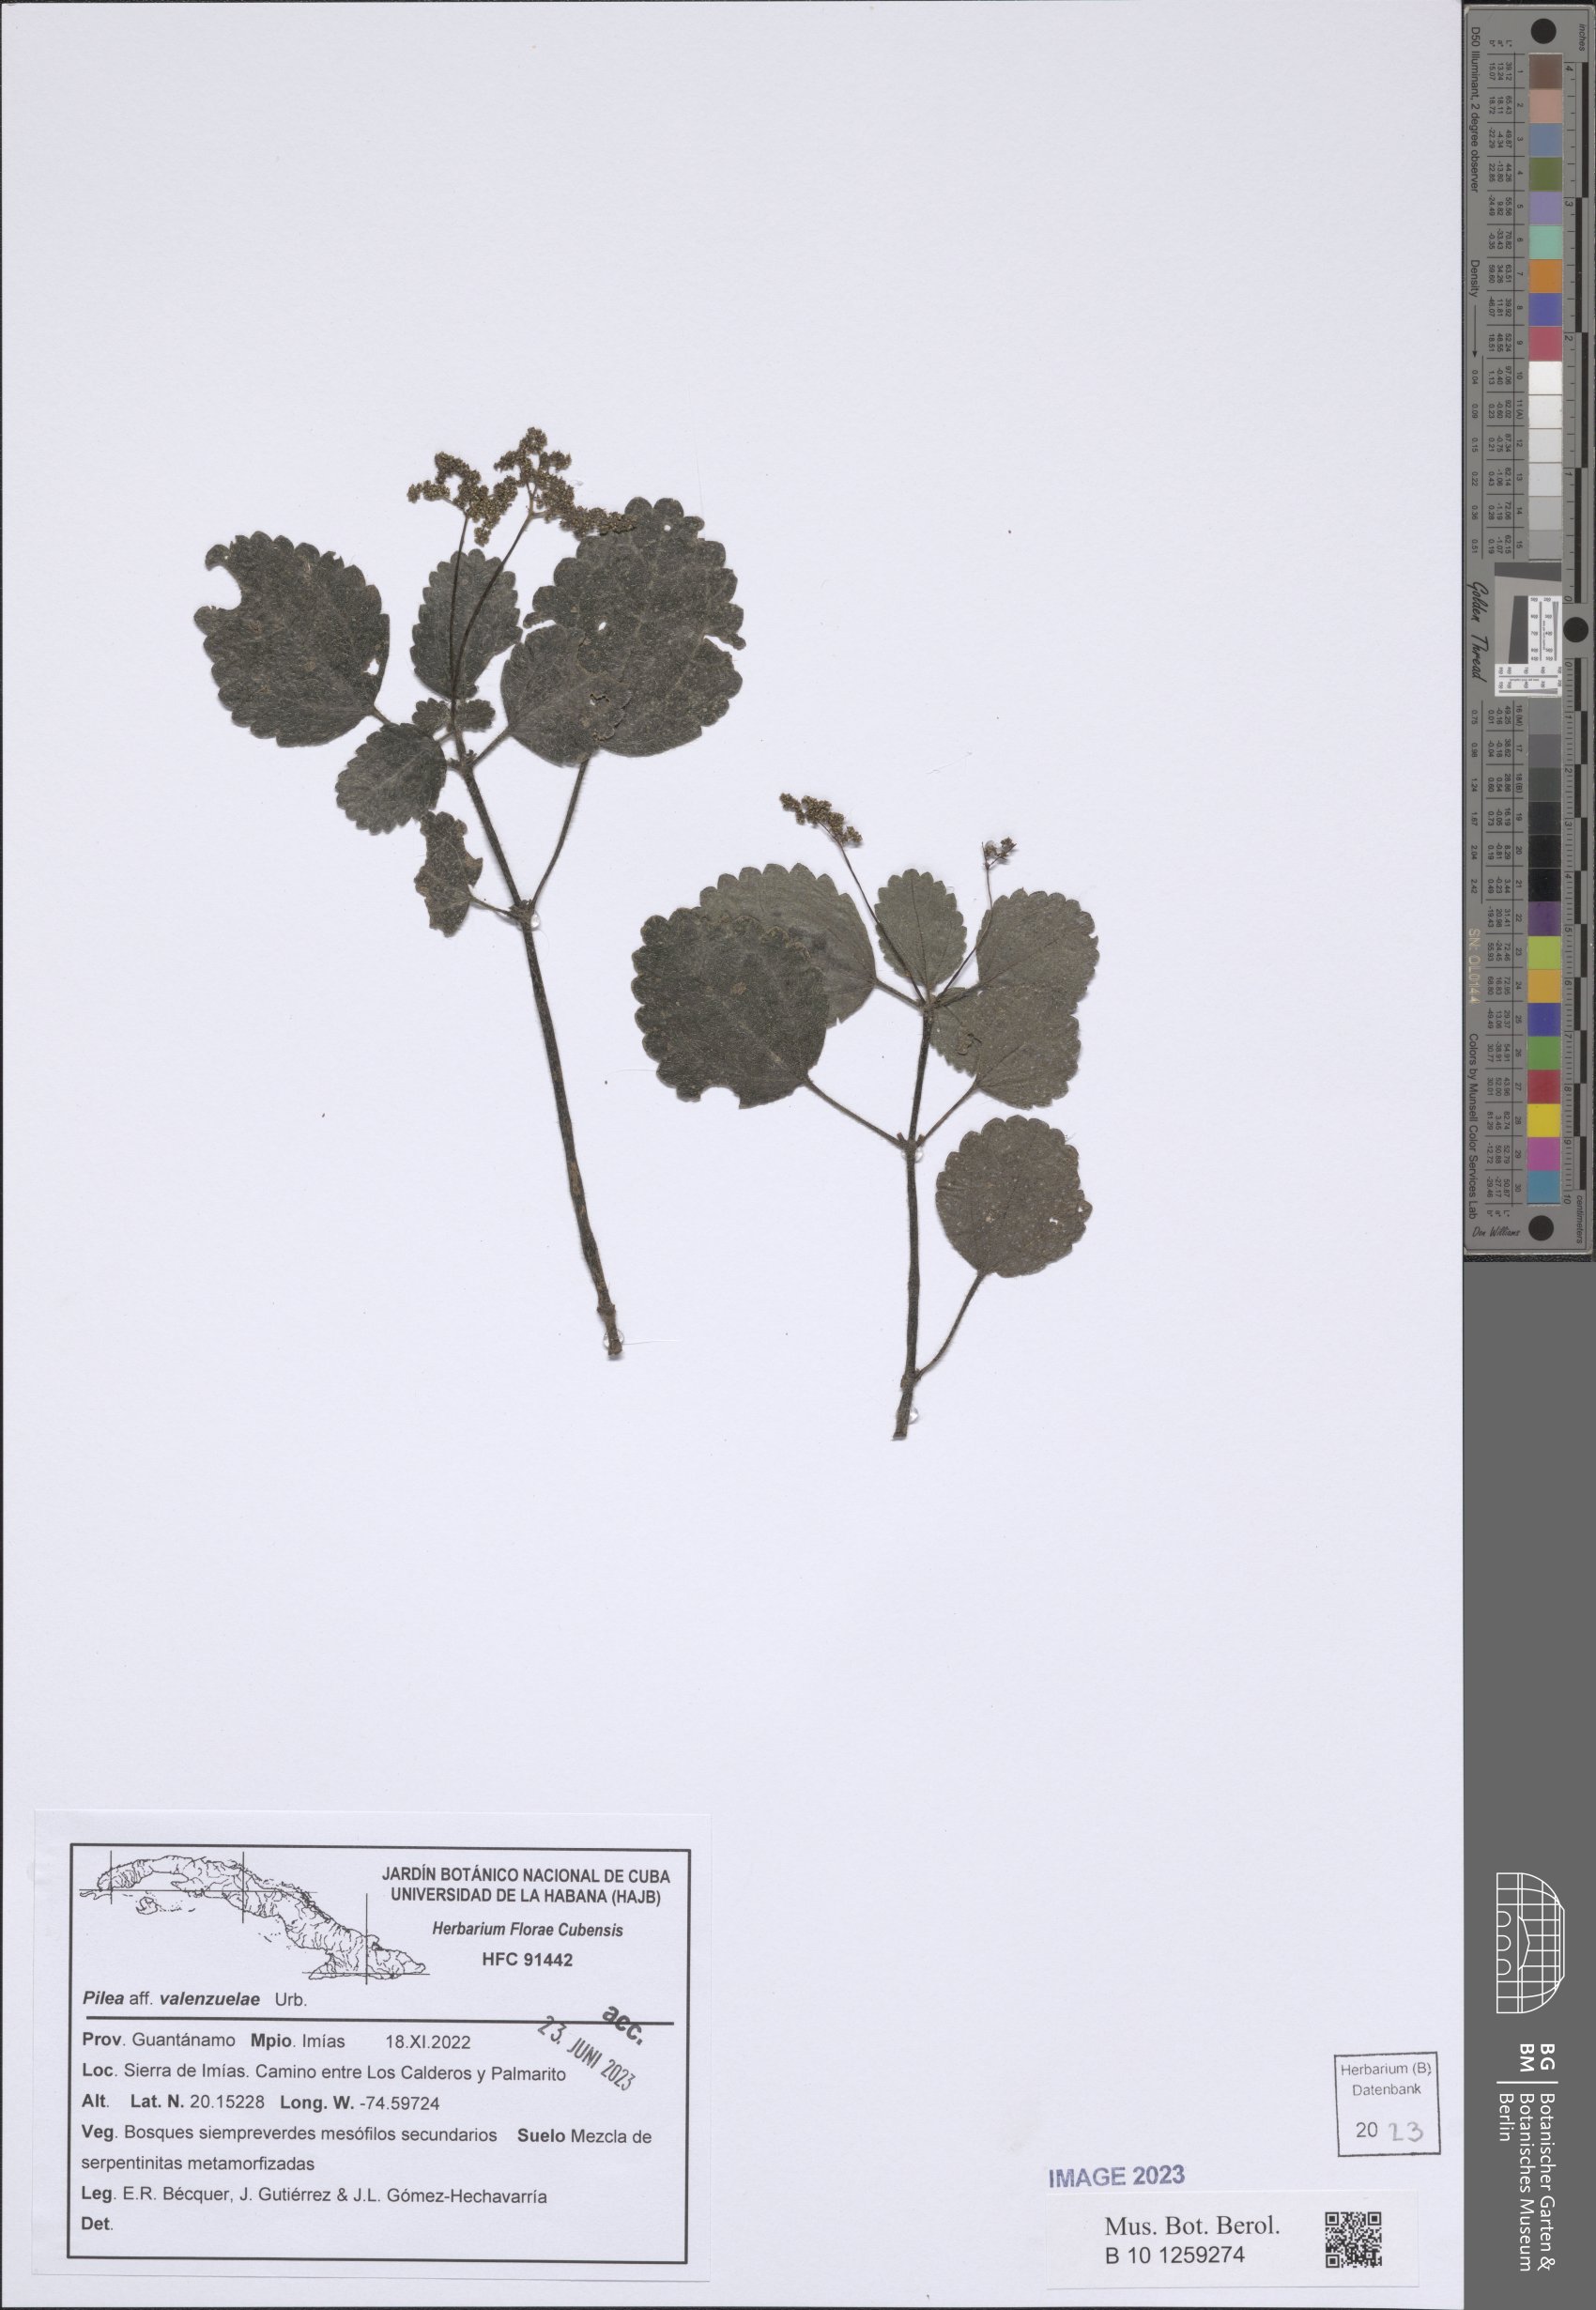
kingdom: Plantae
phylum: Tracheophyta
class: Magnoliopsida
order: Rosales
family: Urticaceae
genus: Pilea
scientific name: Pilea valenzuelae
